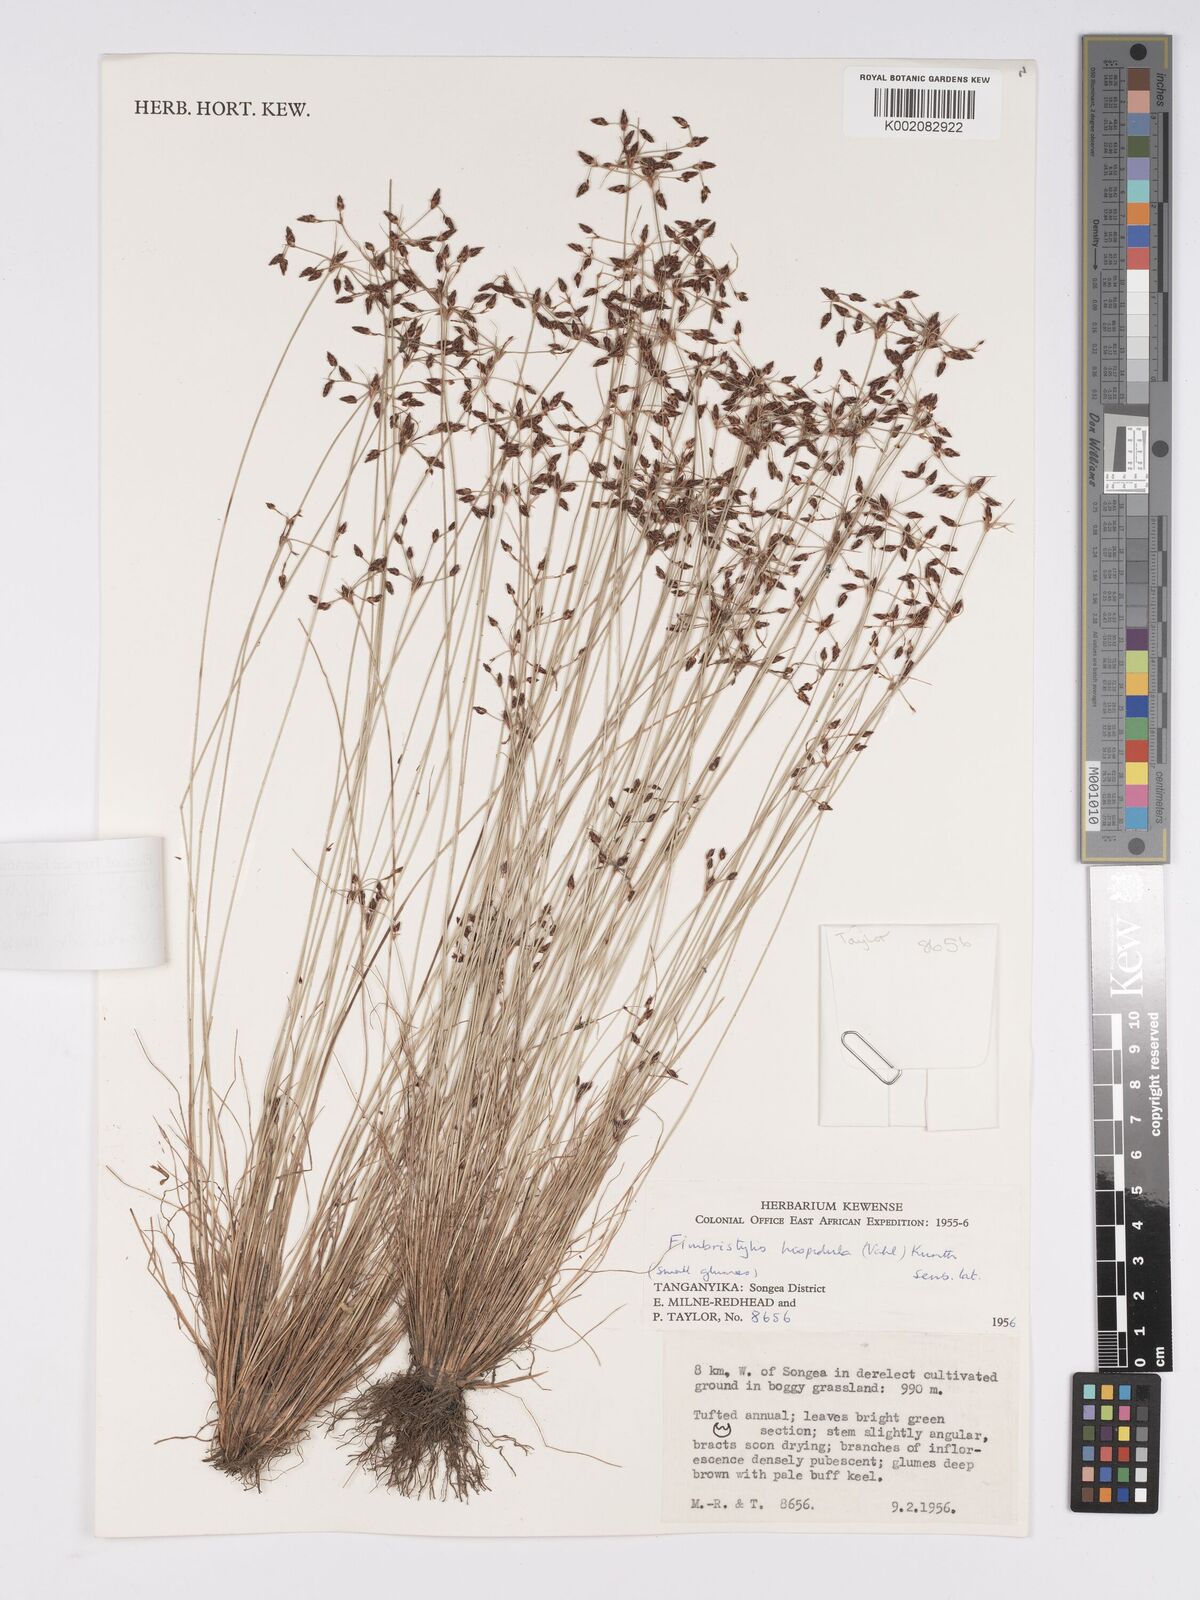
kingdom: Plantae
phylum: Tracheophyta
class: Liliopsida
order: Poales
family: Cyperaceae
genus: Bulbostylis
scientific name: Bulbostylis hispidula
